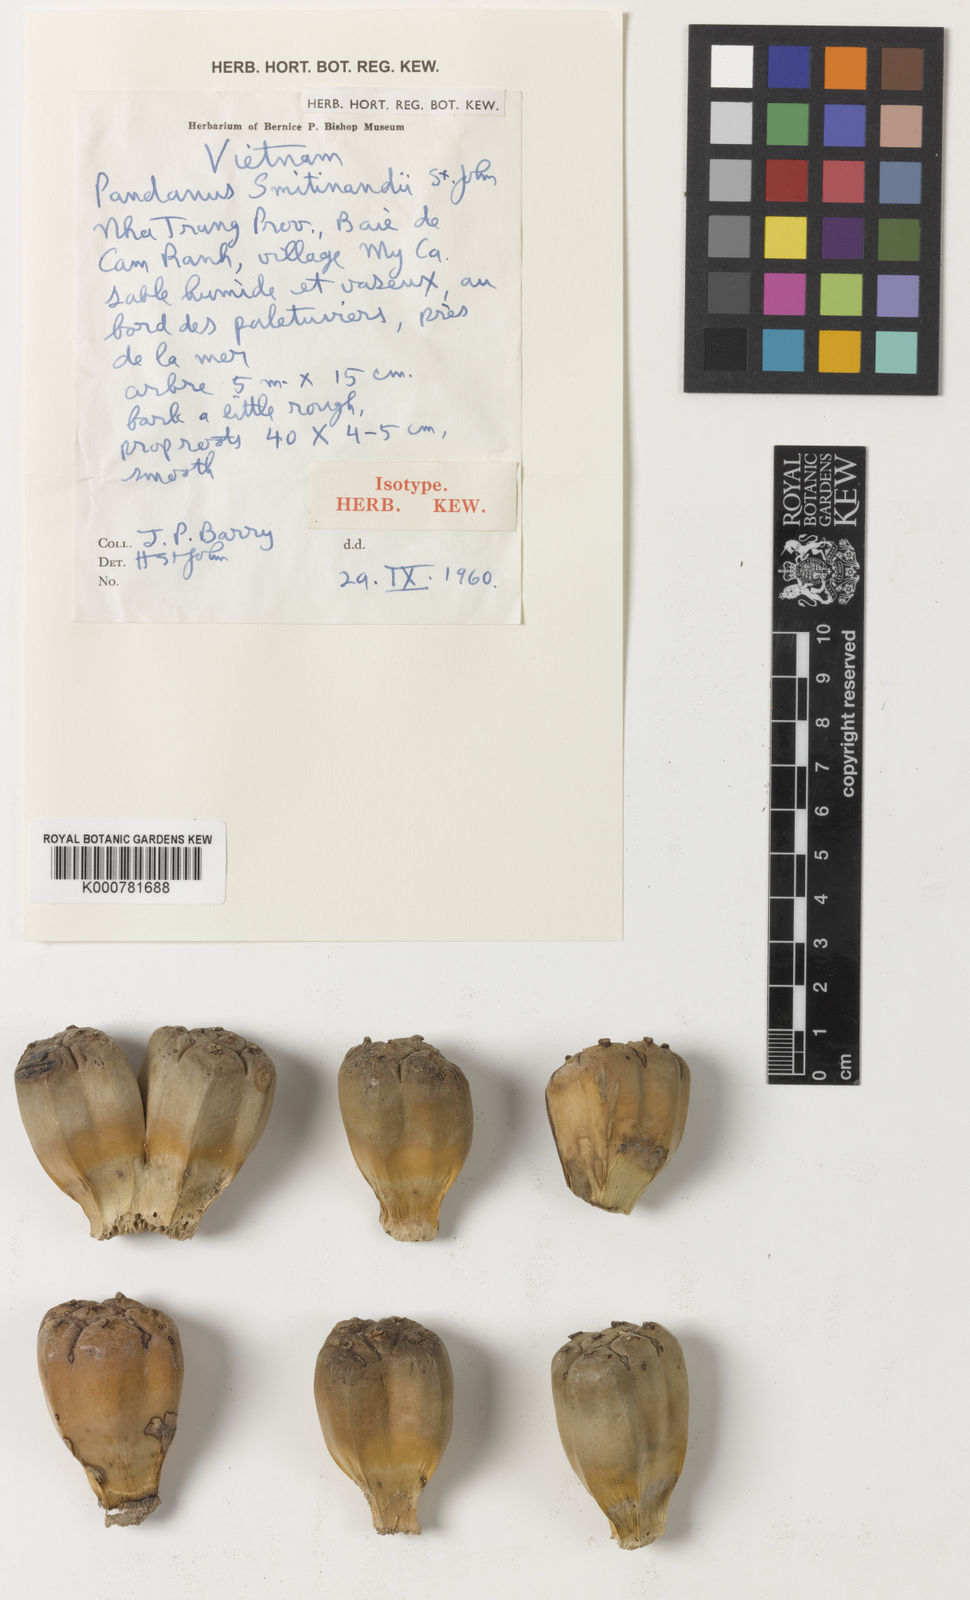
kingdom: Plantae
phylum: Tracheophyta
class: Liliopsida
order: Pandanales
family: Pandanaceae
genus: Pandanus
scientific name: Pandanus odorifer
